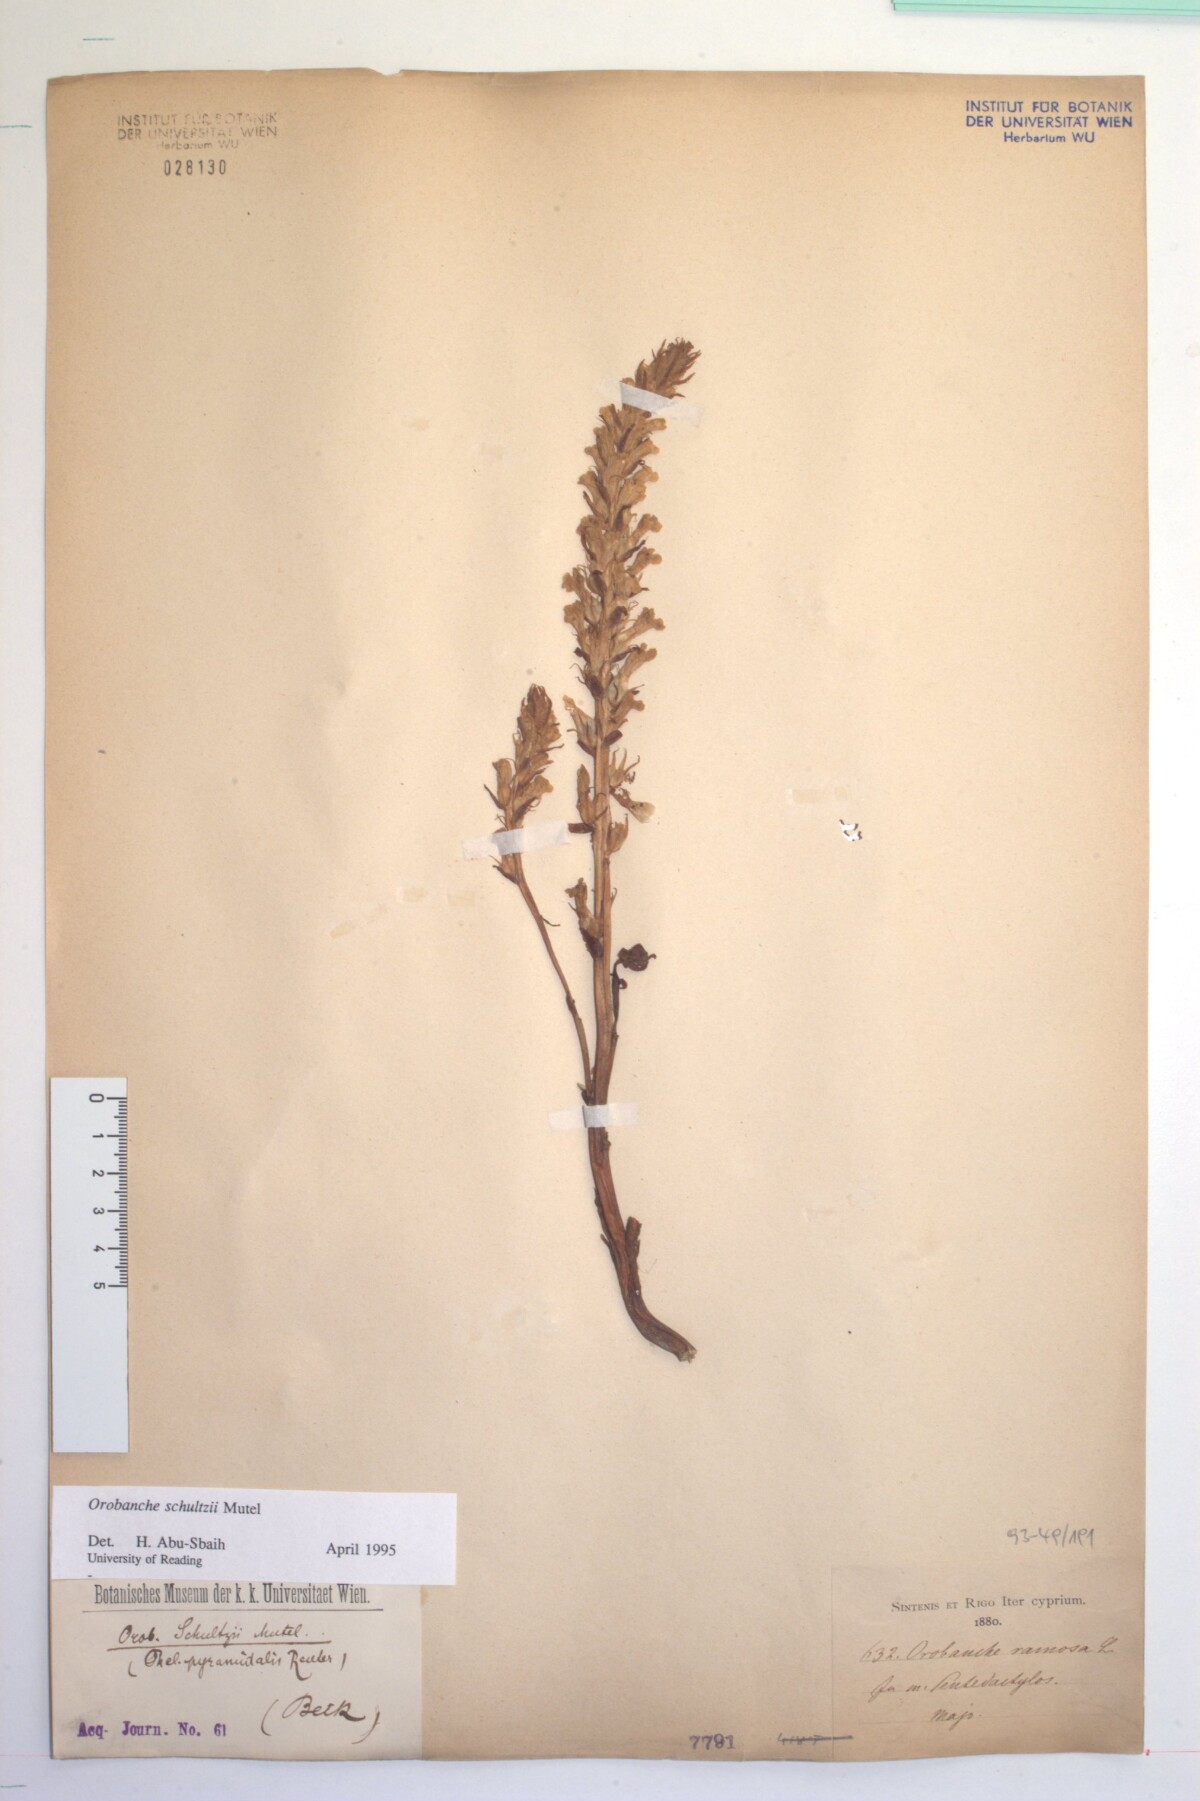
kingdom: Plantae
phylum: Tracheophyta
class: Magnoliopsida
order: Lamiales
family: Orobanchaceae
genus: Phelipanche
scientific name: Phelipanche schultzii
